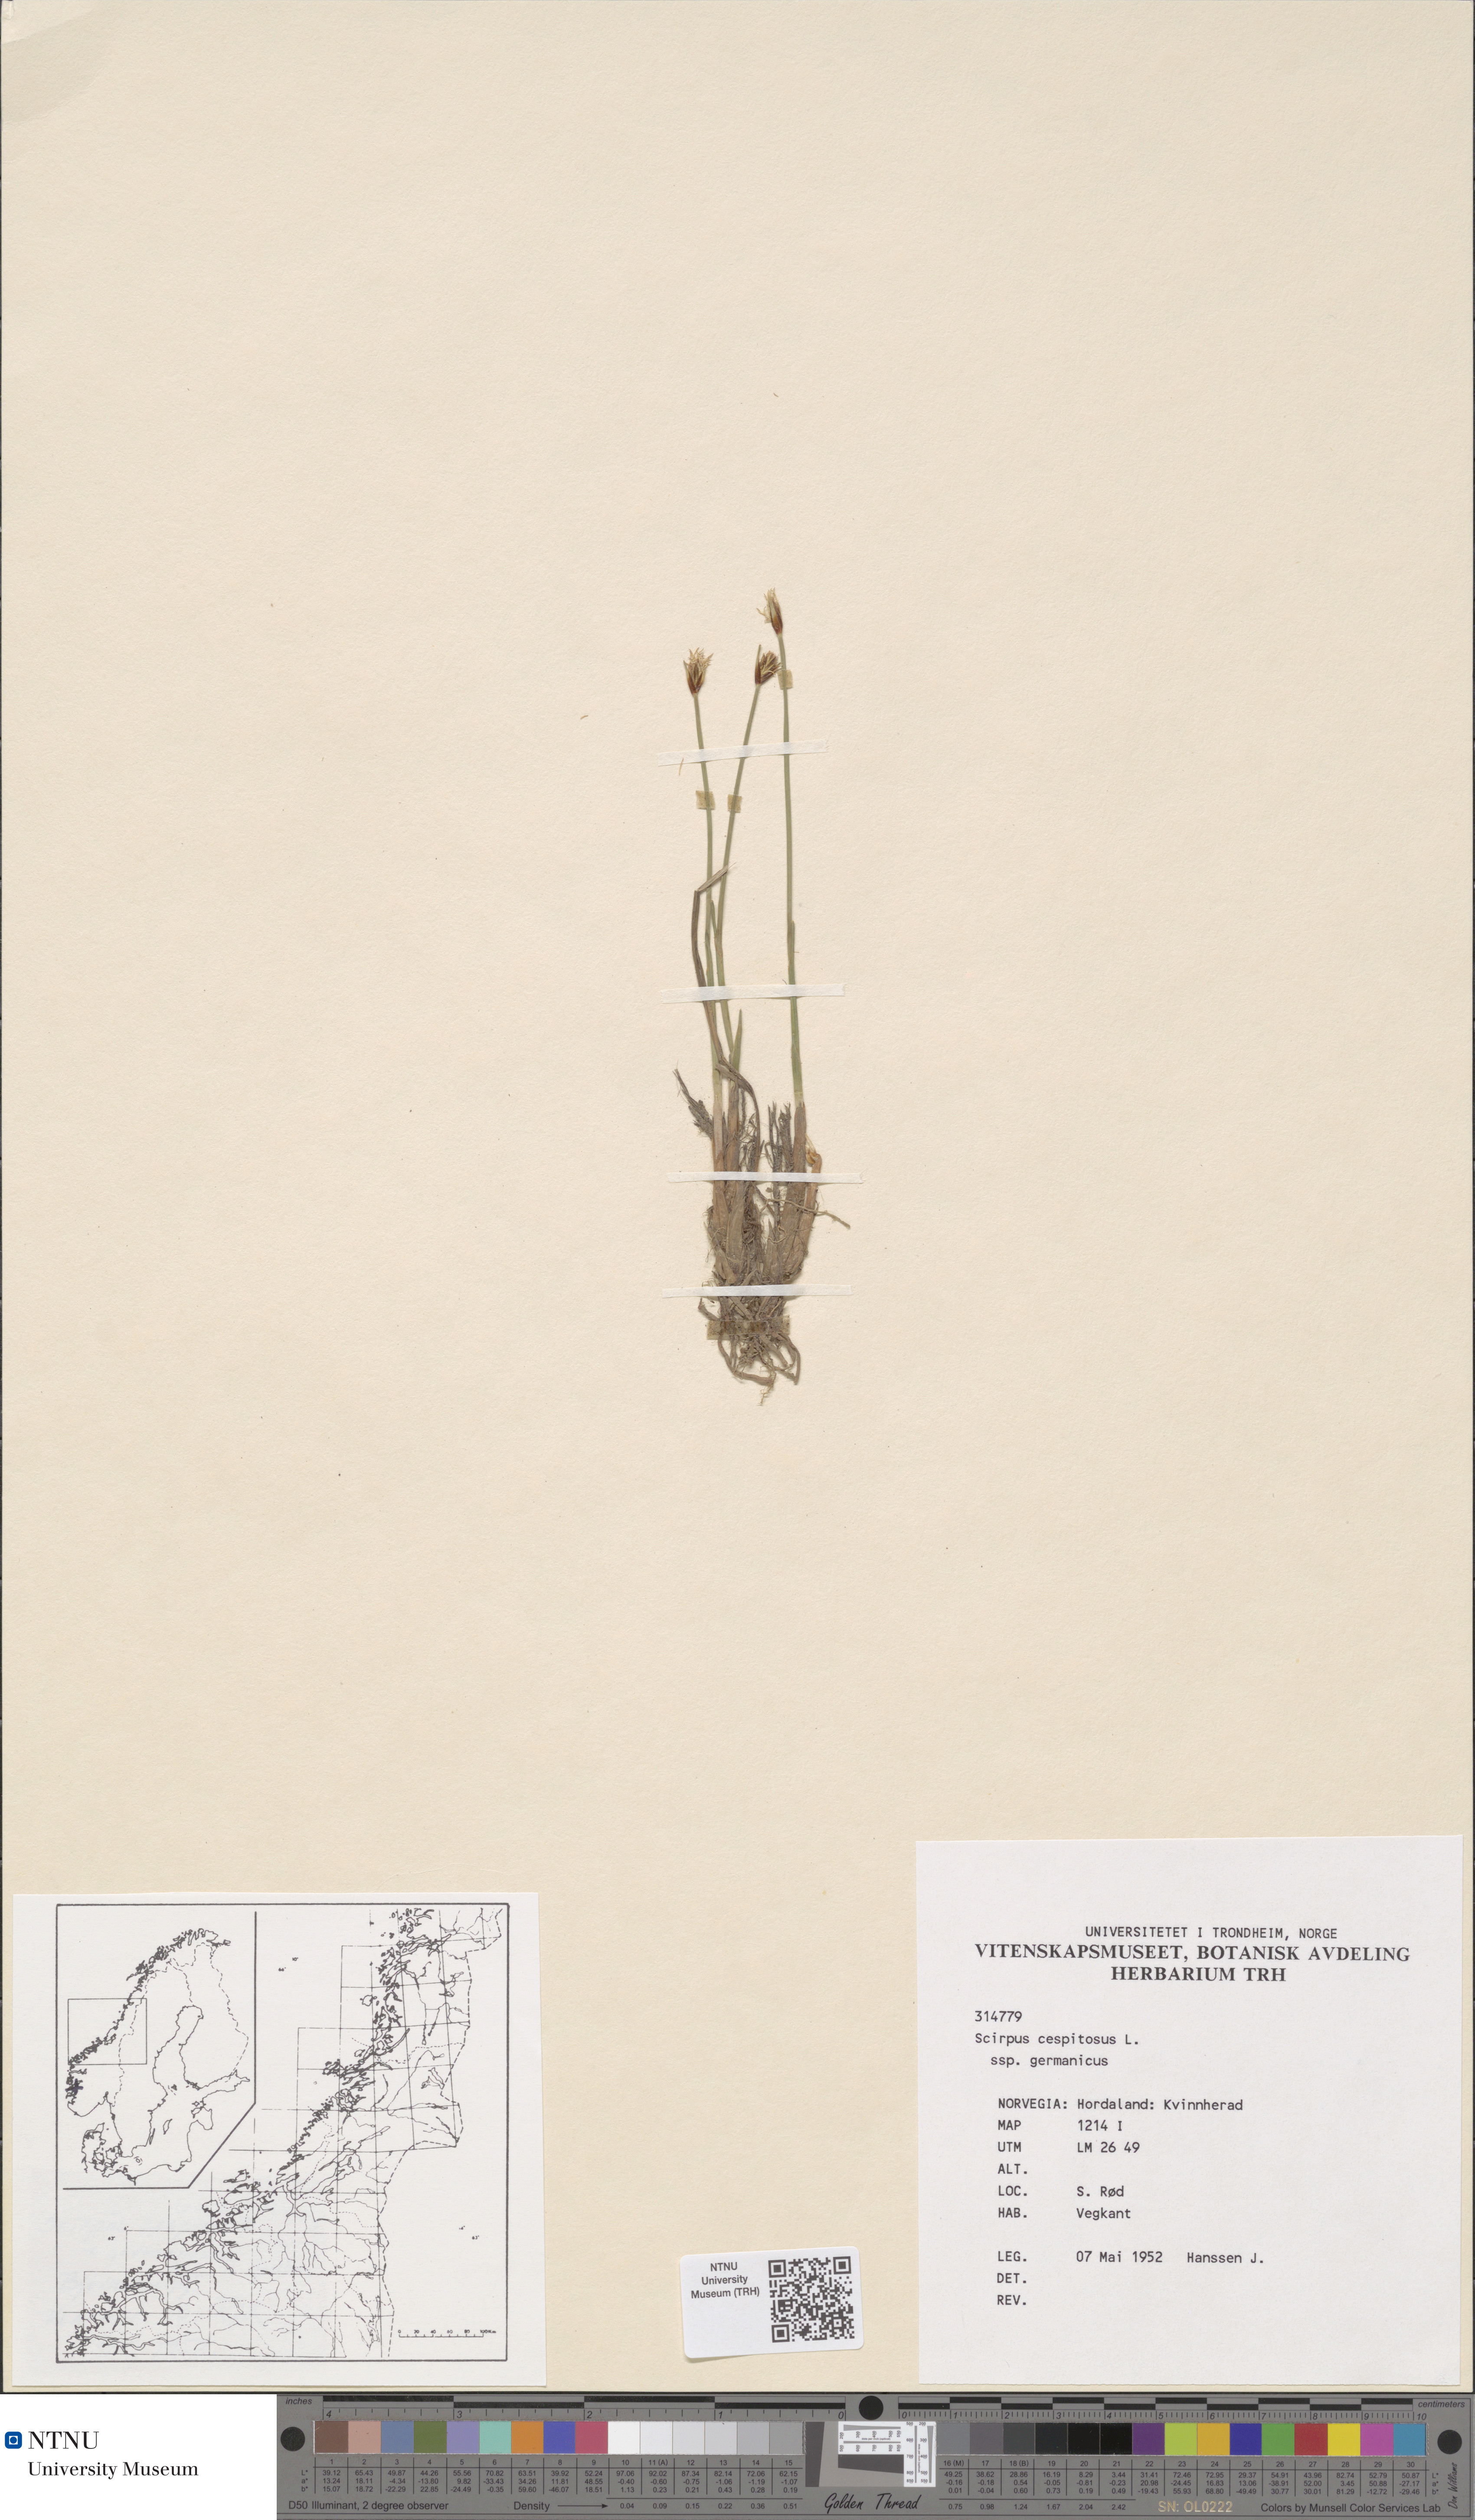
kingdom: Plantae
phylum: Tracheophyta
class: Liliopsida
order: Poales
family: Cyperaceae
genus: Trichophorum
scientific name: Trichophorum cespitosum
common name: Cespitose bulrush
